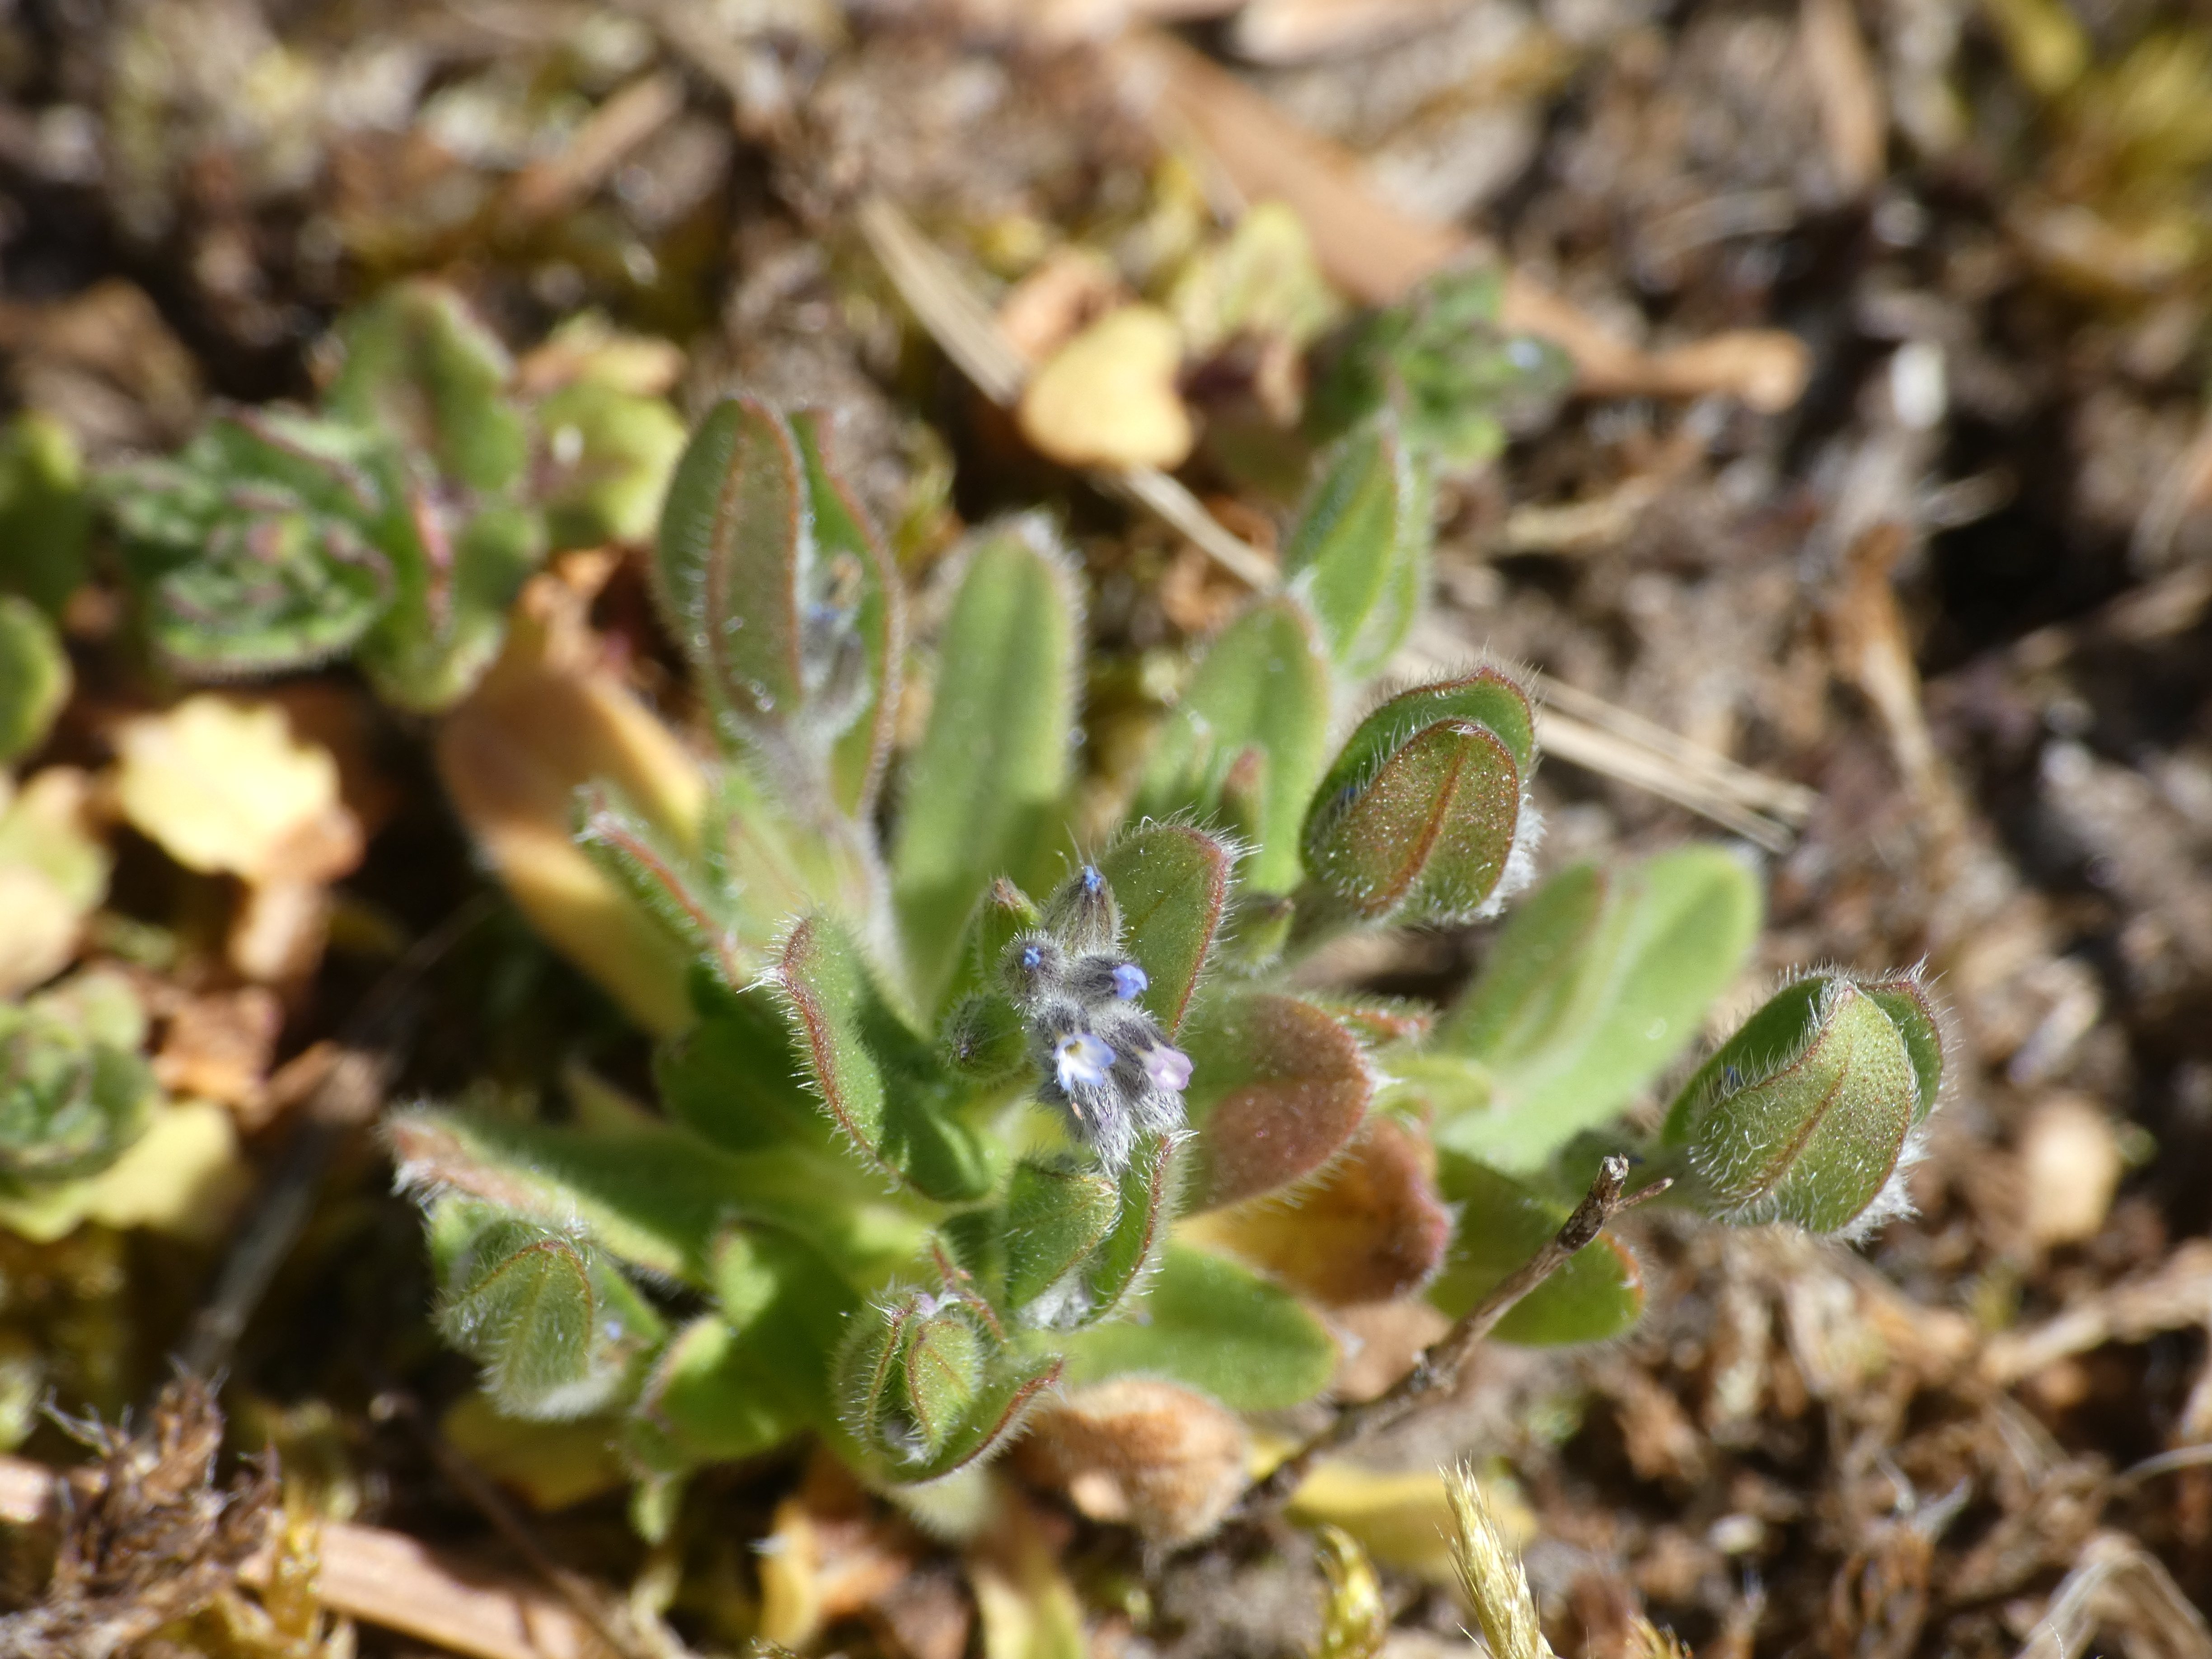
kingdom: Plantae
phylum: Tracheophyta
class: Magnoliopsida
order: Boraginales
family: Boraginaceae
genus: Myosotis
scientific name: Myosotis ramosissima
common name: Bakke-forglemmigej
